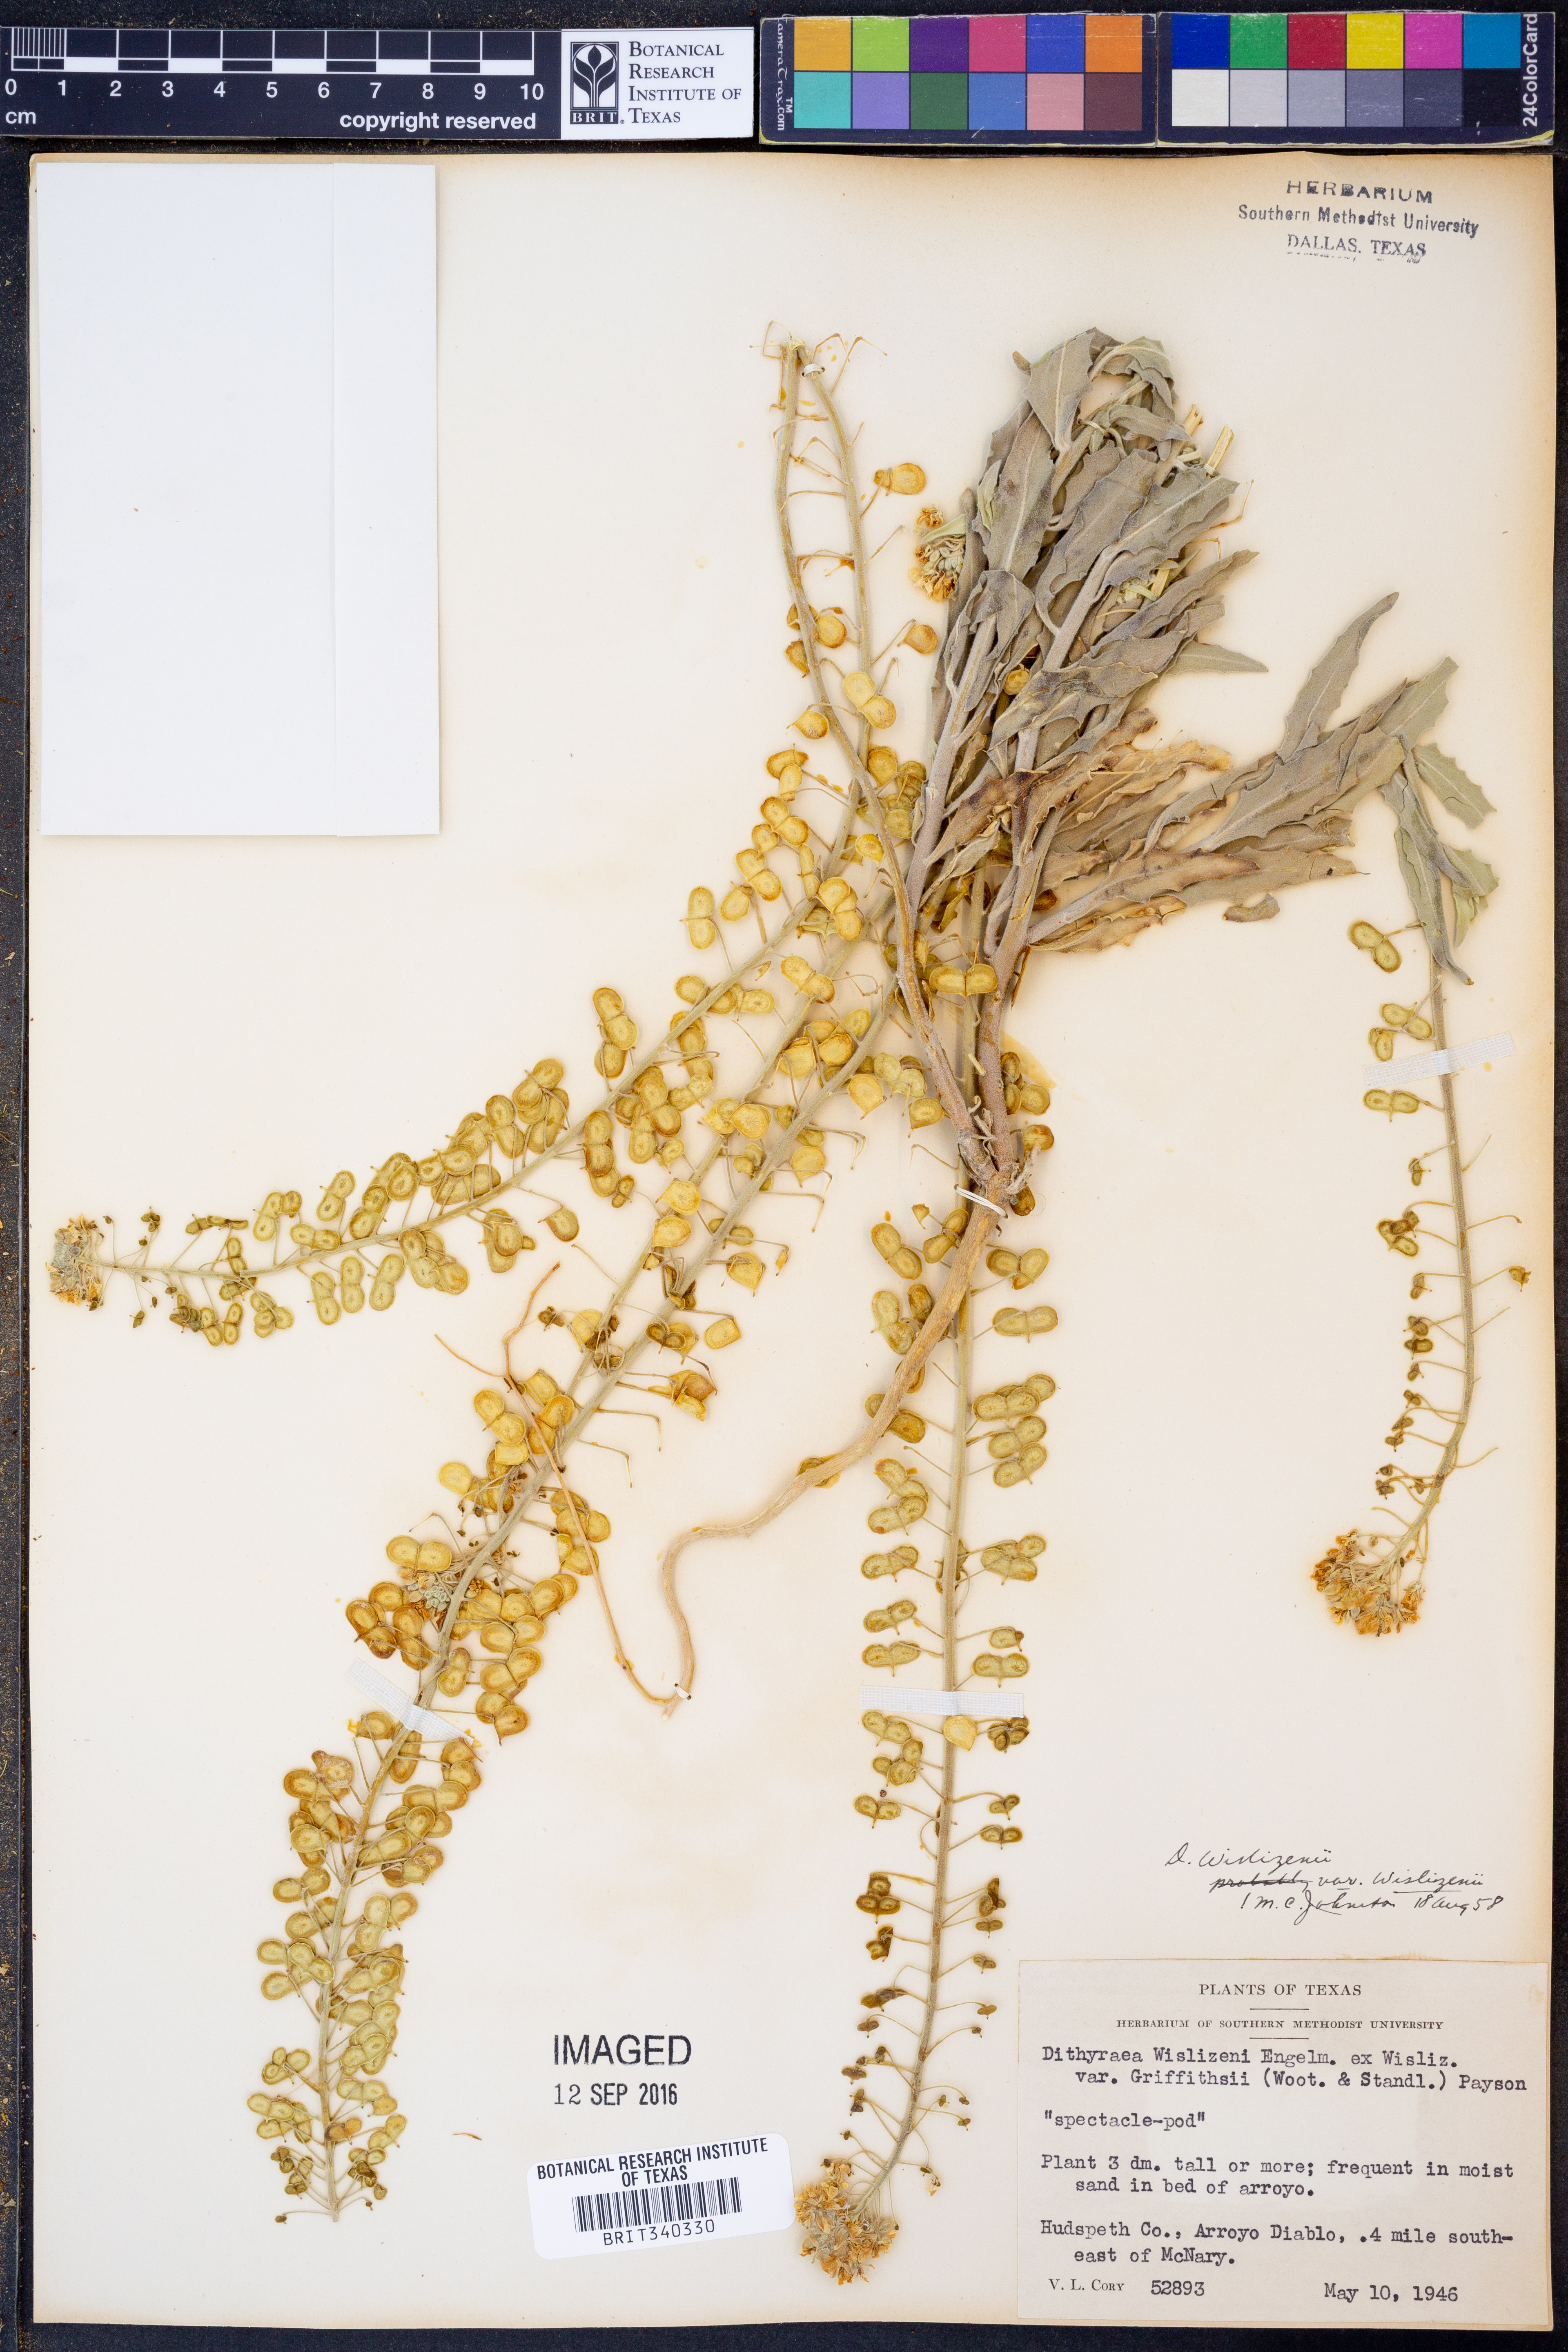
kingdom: Plantae
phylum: Tracheophyta
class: Magnoliopsida
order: Brassicales
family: Brassicaceae
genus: Dimorphocarpa
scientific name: Dimorphocarpa wislizenii
